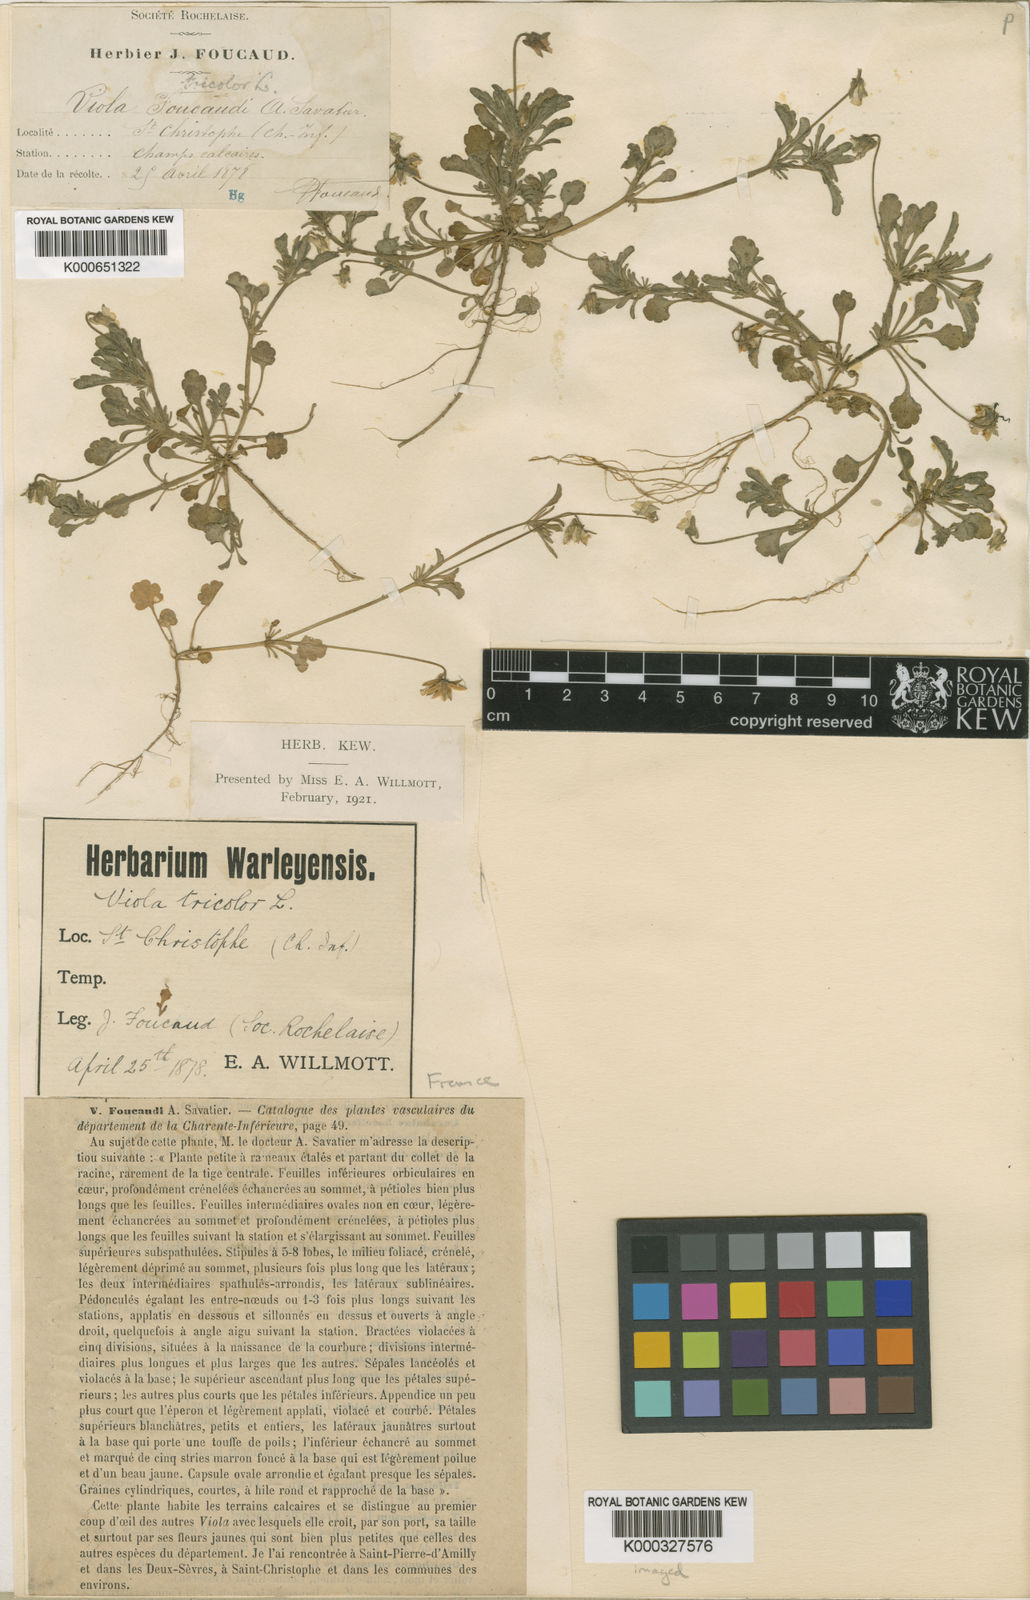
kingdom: Plantae
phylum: Tracheophyta
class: Magnoliopsida
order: Malpighiales
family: Violaceae
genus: Viola
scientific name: Viola kitaibeliana
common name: Dwarf pansy
